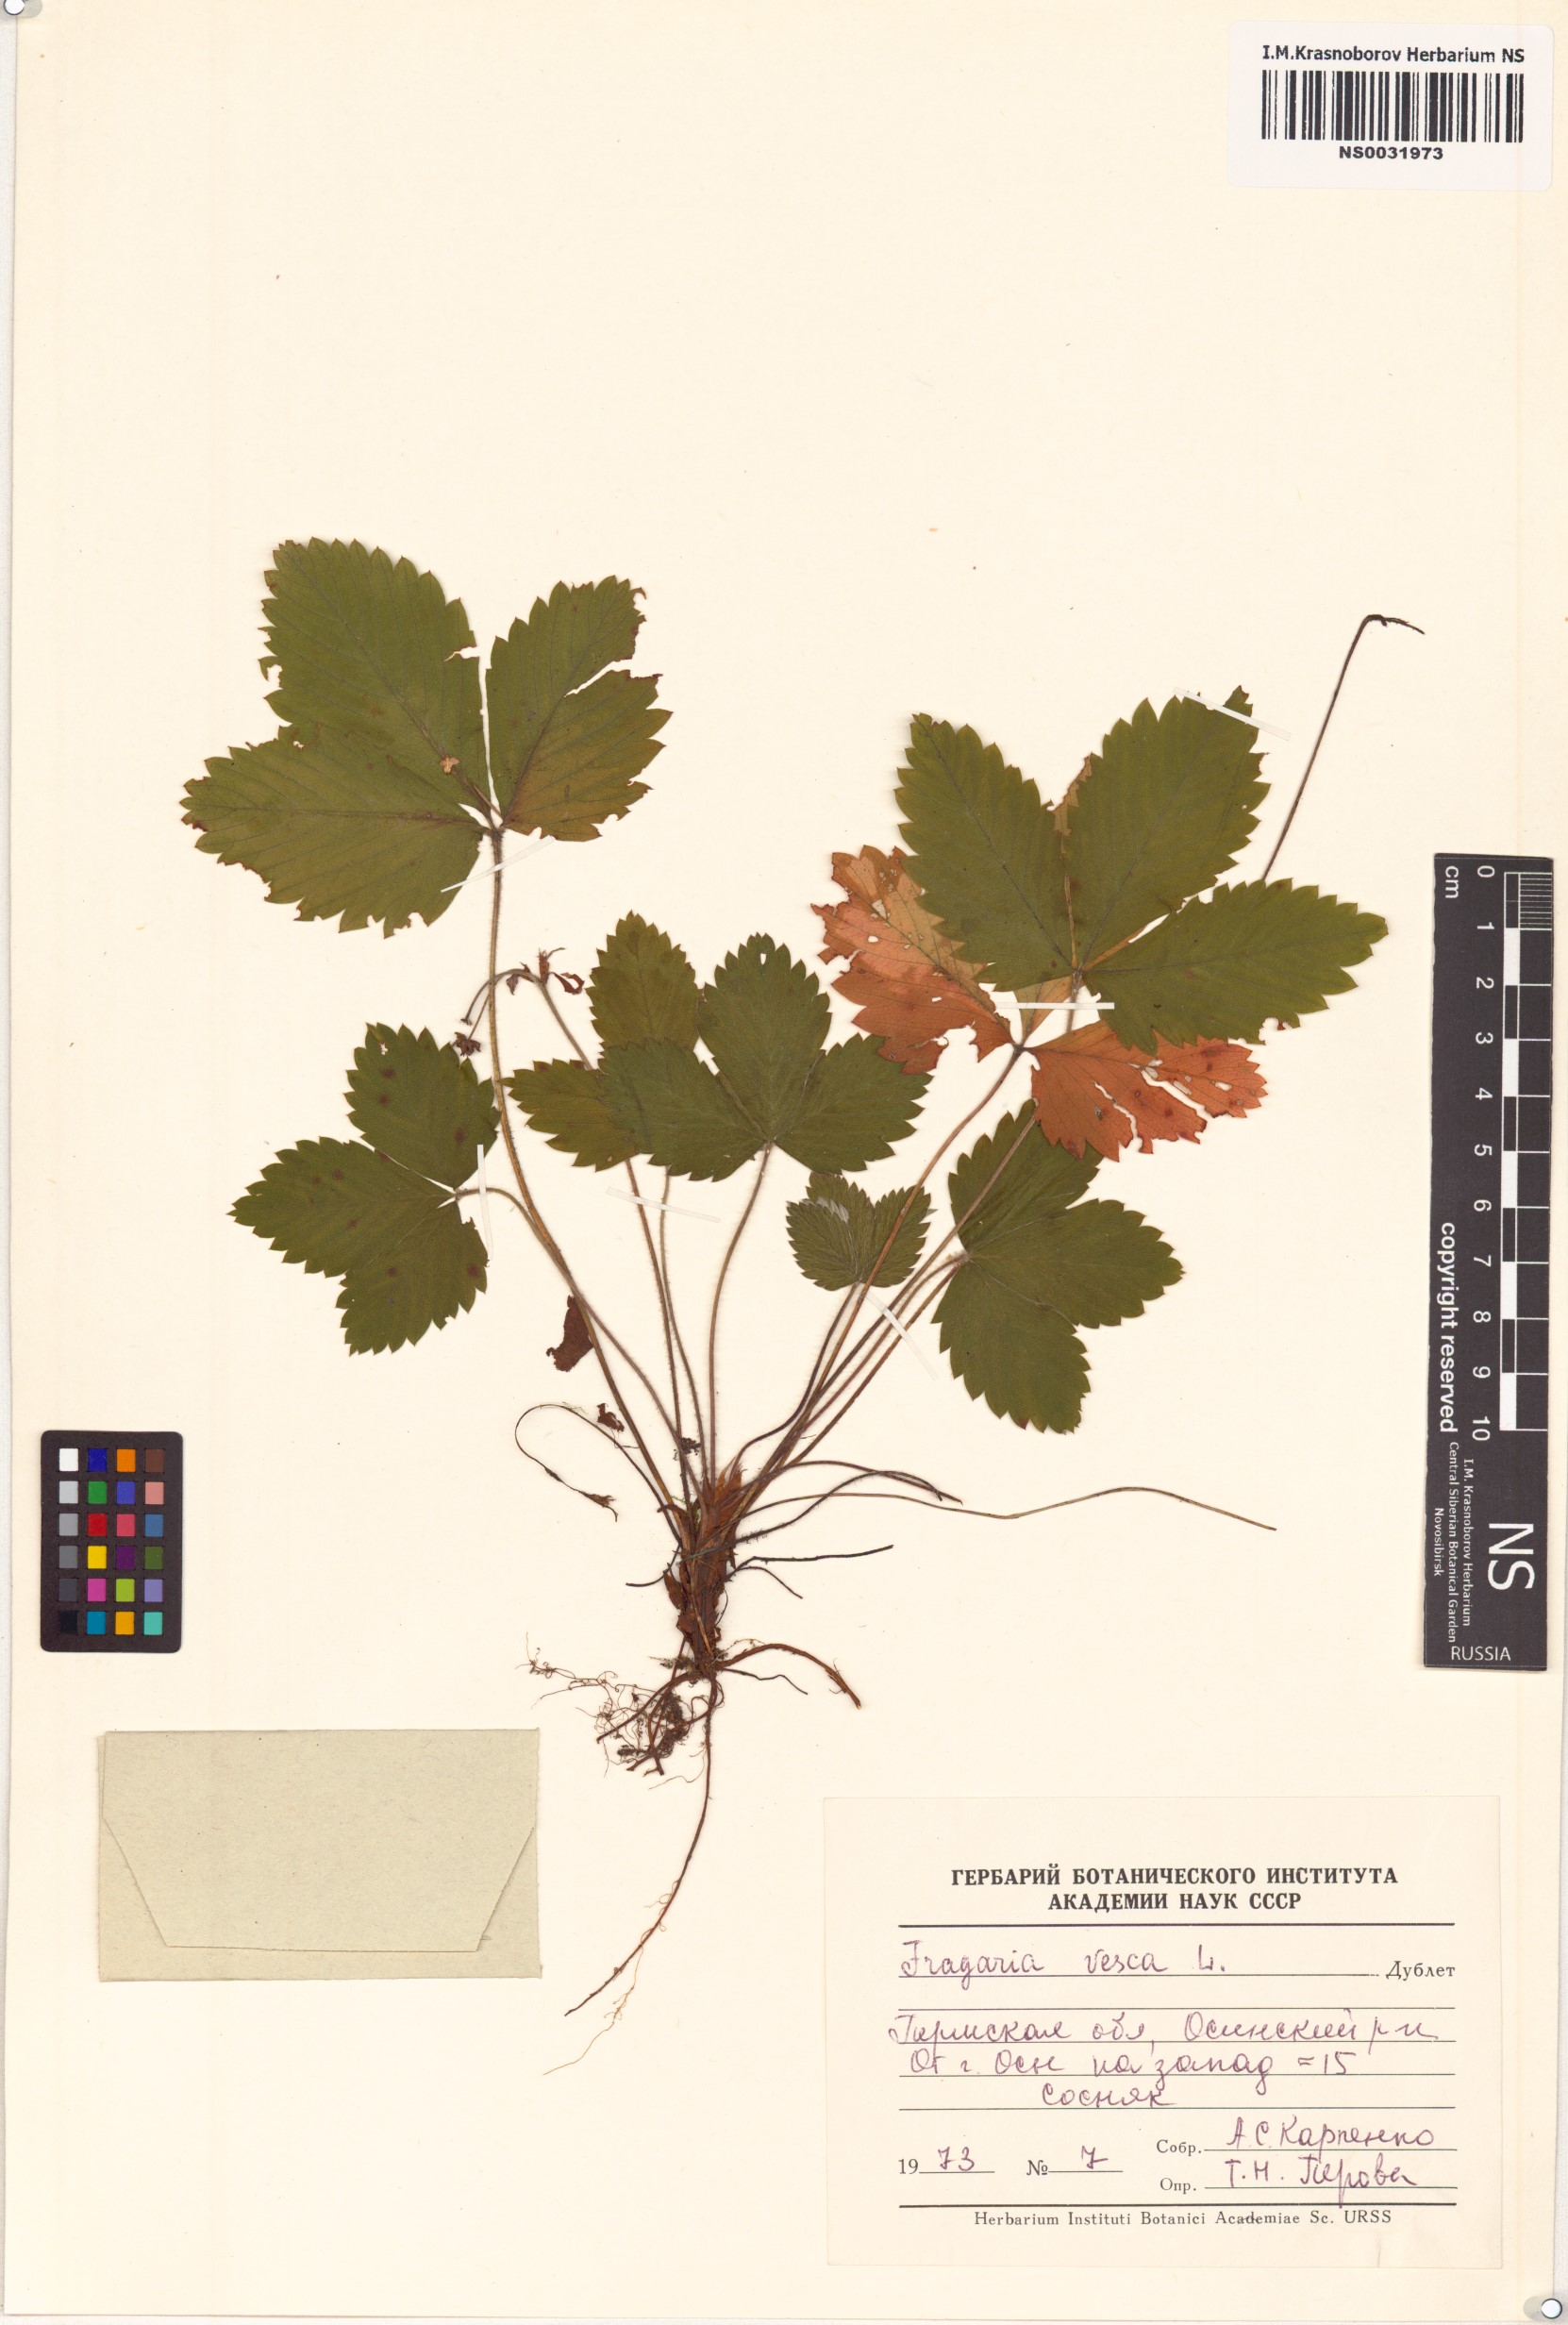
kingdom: Plantae
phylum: Tracheophyta
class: Magnoliopsida
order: Rosales
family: Rosaceae
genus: Fragaria
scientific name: Fragaria vesca
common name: Wild strawberry
